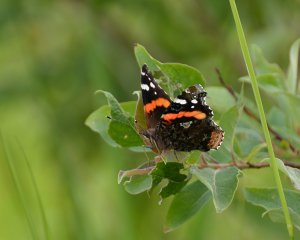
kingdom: Animalia
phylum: Arthropoda
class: Insecta
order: Lepidoptera
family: Nymphalidae
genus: Vanessa
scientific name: Vanessa atalanta
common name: Red Admiral
